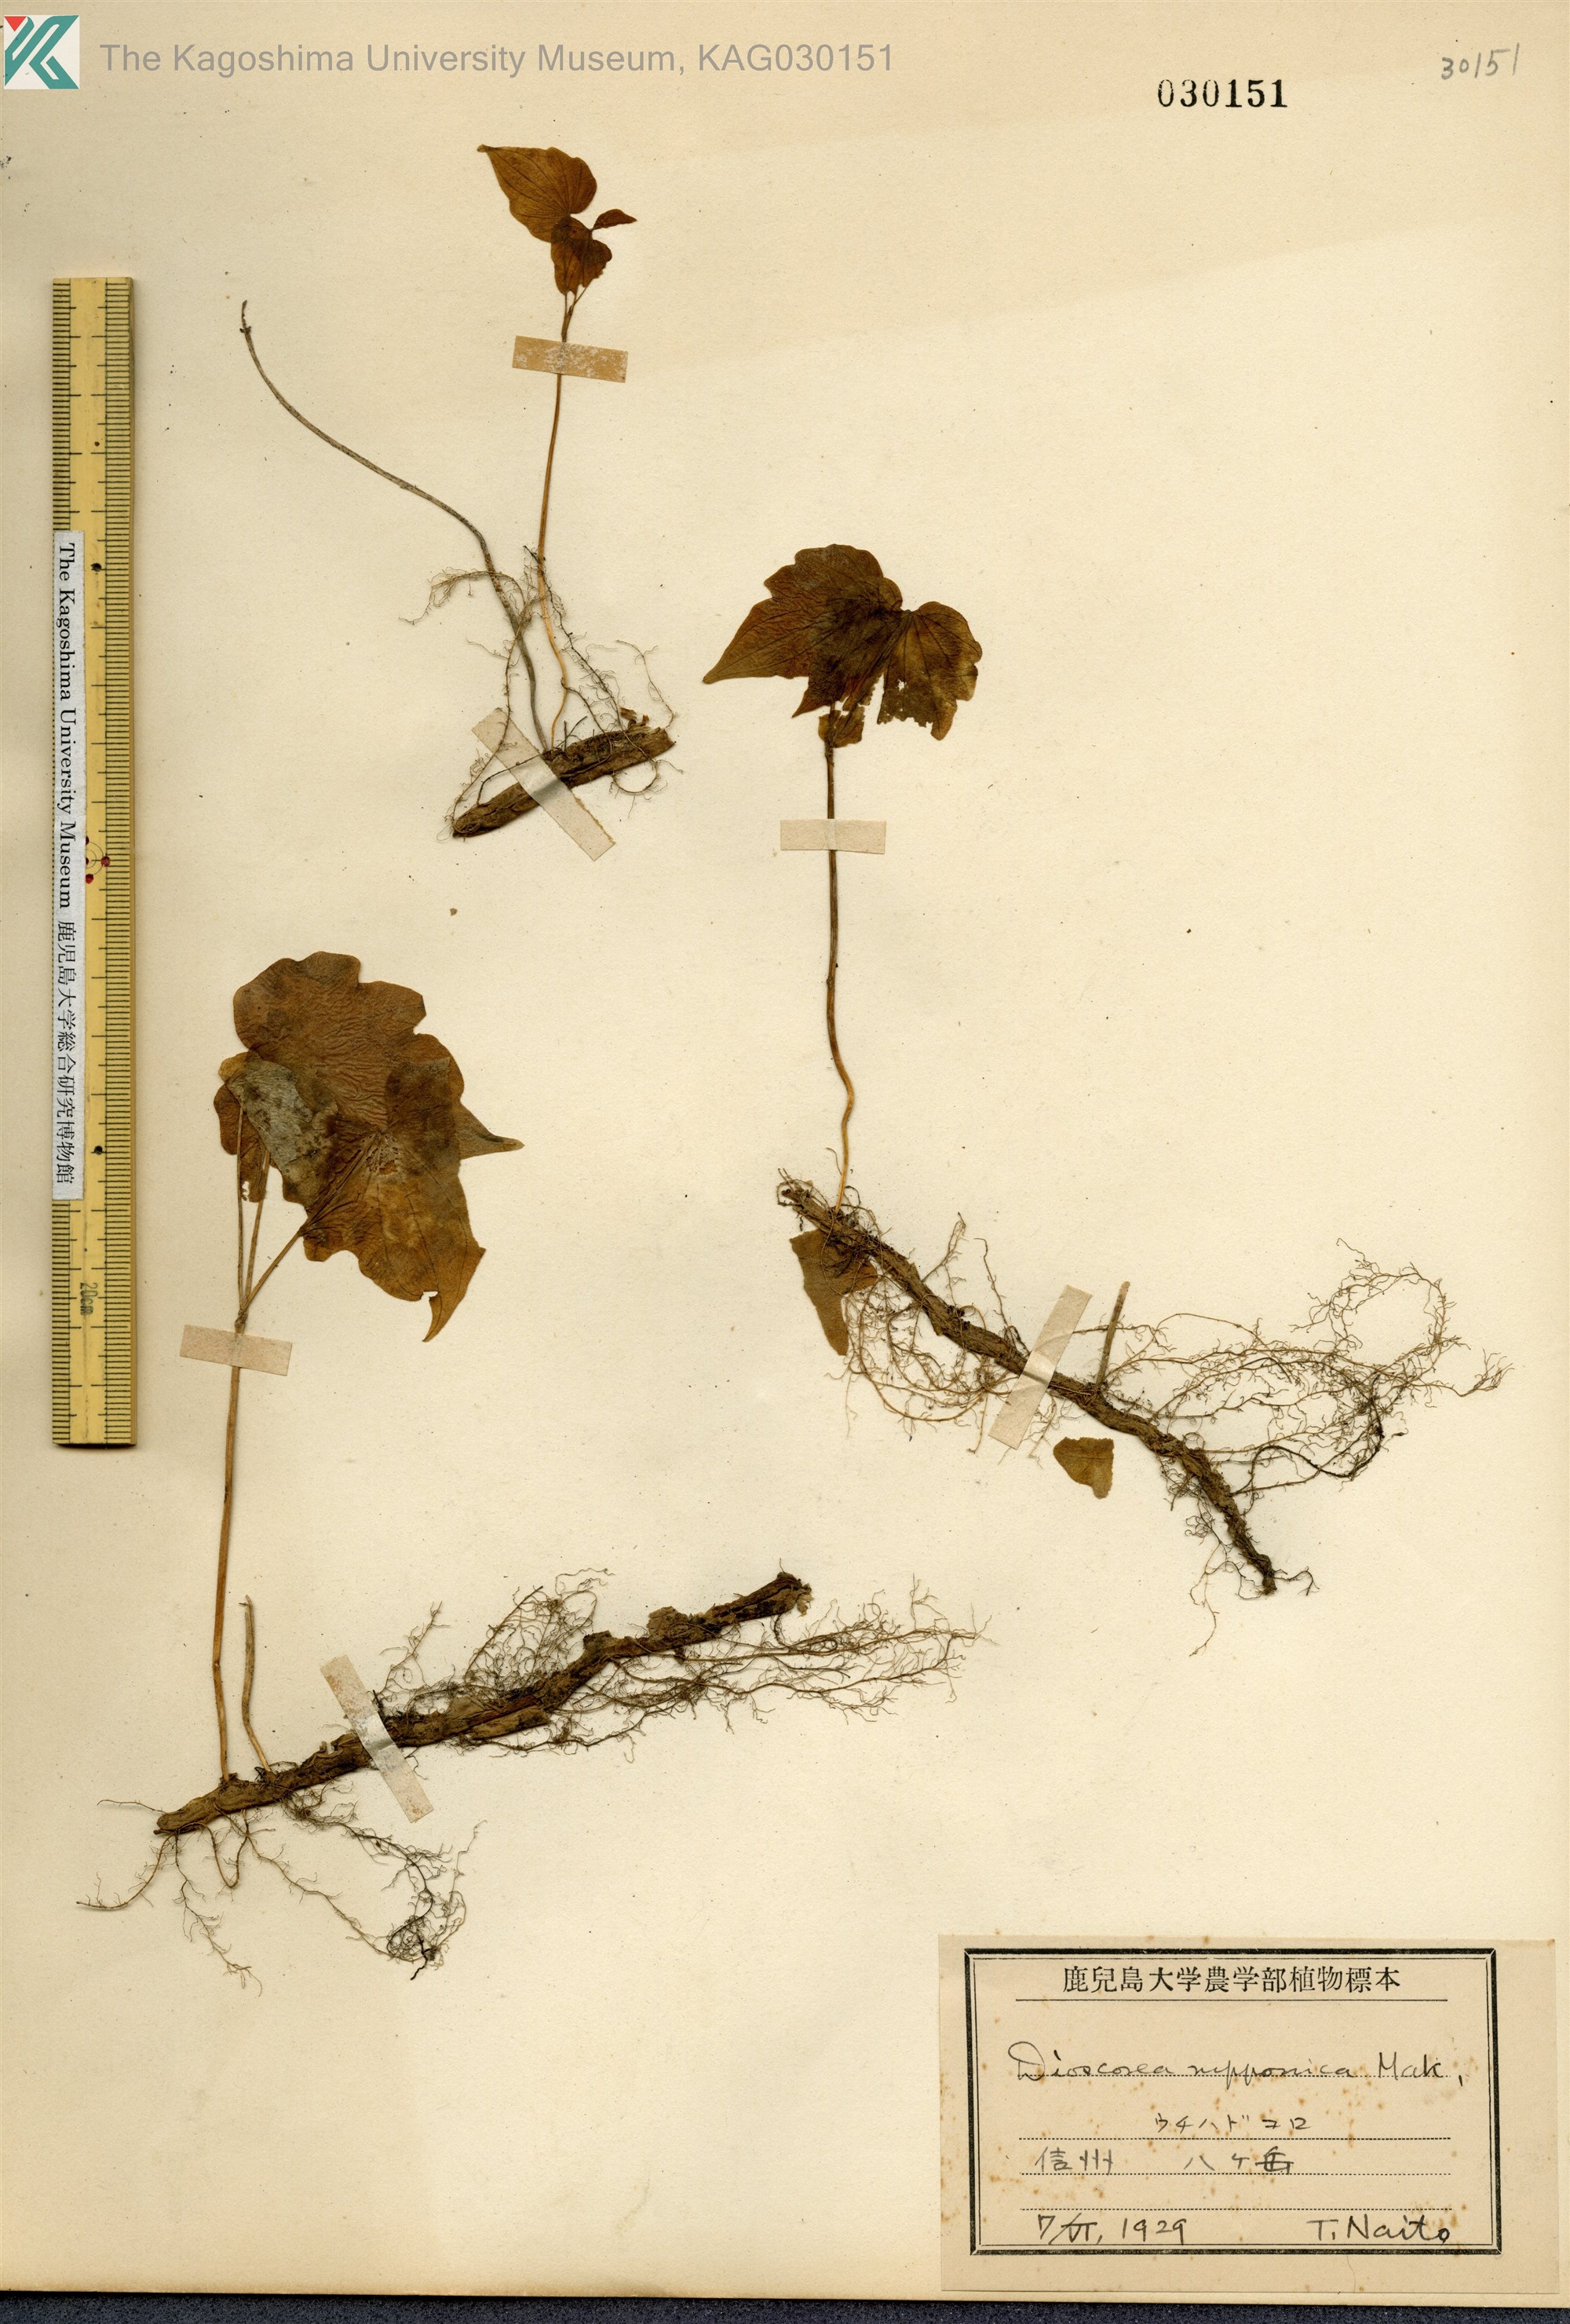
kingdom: Plantae
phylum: Tracheophyta
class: Liliopsida
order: Dioscoreales
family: Dioscoreaceae
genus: Dioscorea
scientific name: Dioscorea nipponica
